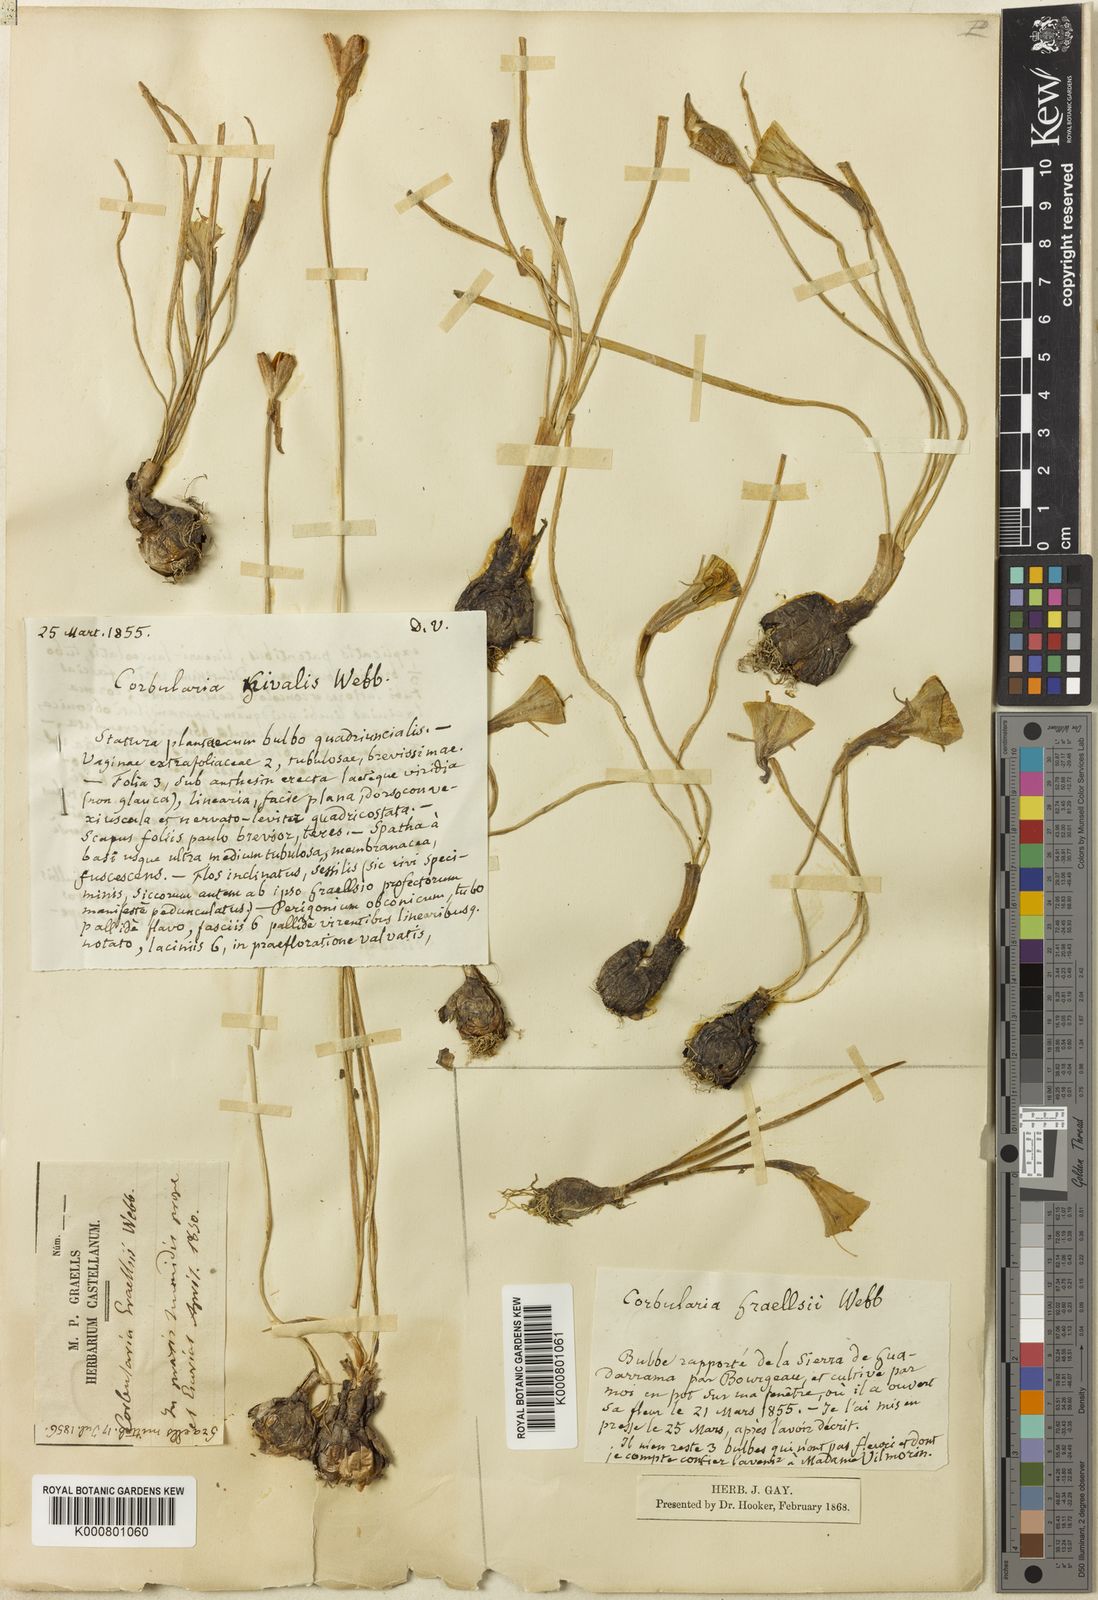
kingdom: Plantae
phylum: Tracheophyta
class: Liliopsida
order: Asparagales
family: Amaryllidaceae
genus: Narcissus
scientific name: Narcissus bulbocodium
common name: Hoop-petticoat daffodil
